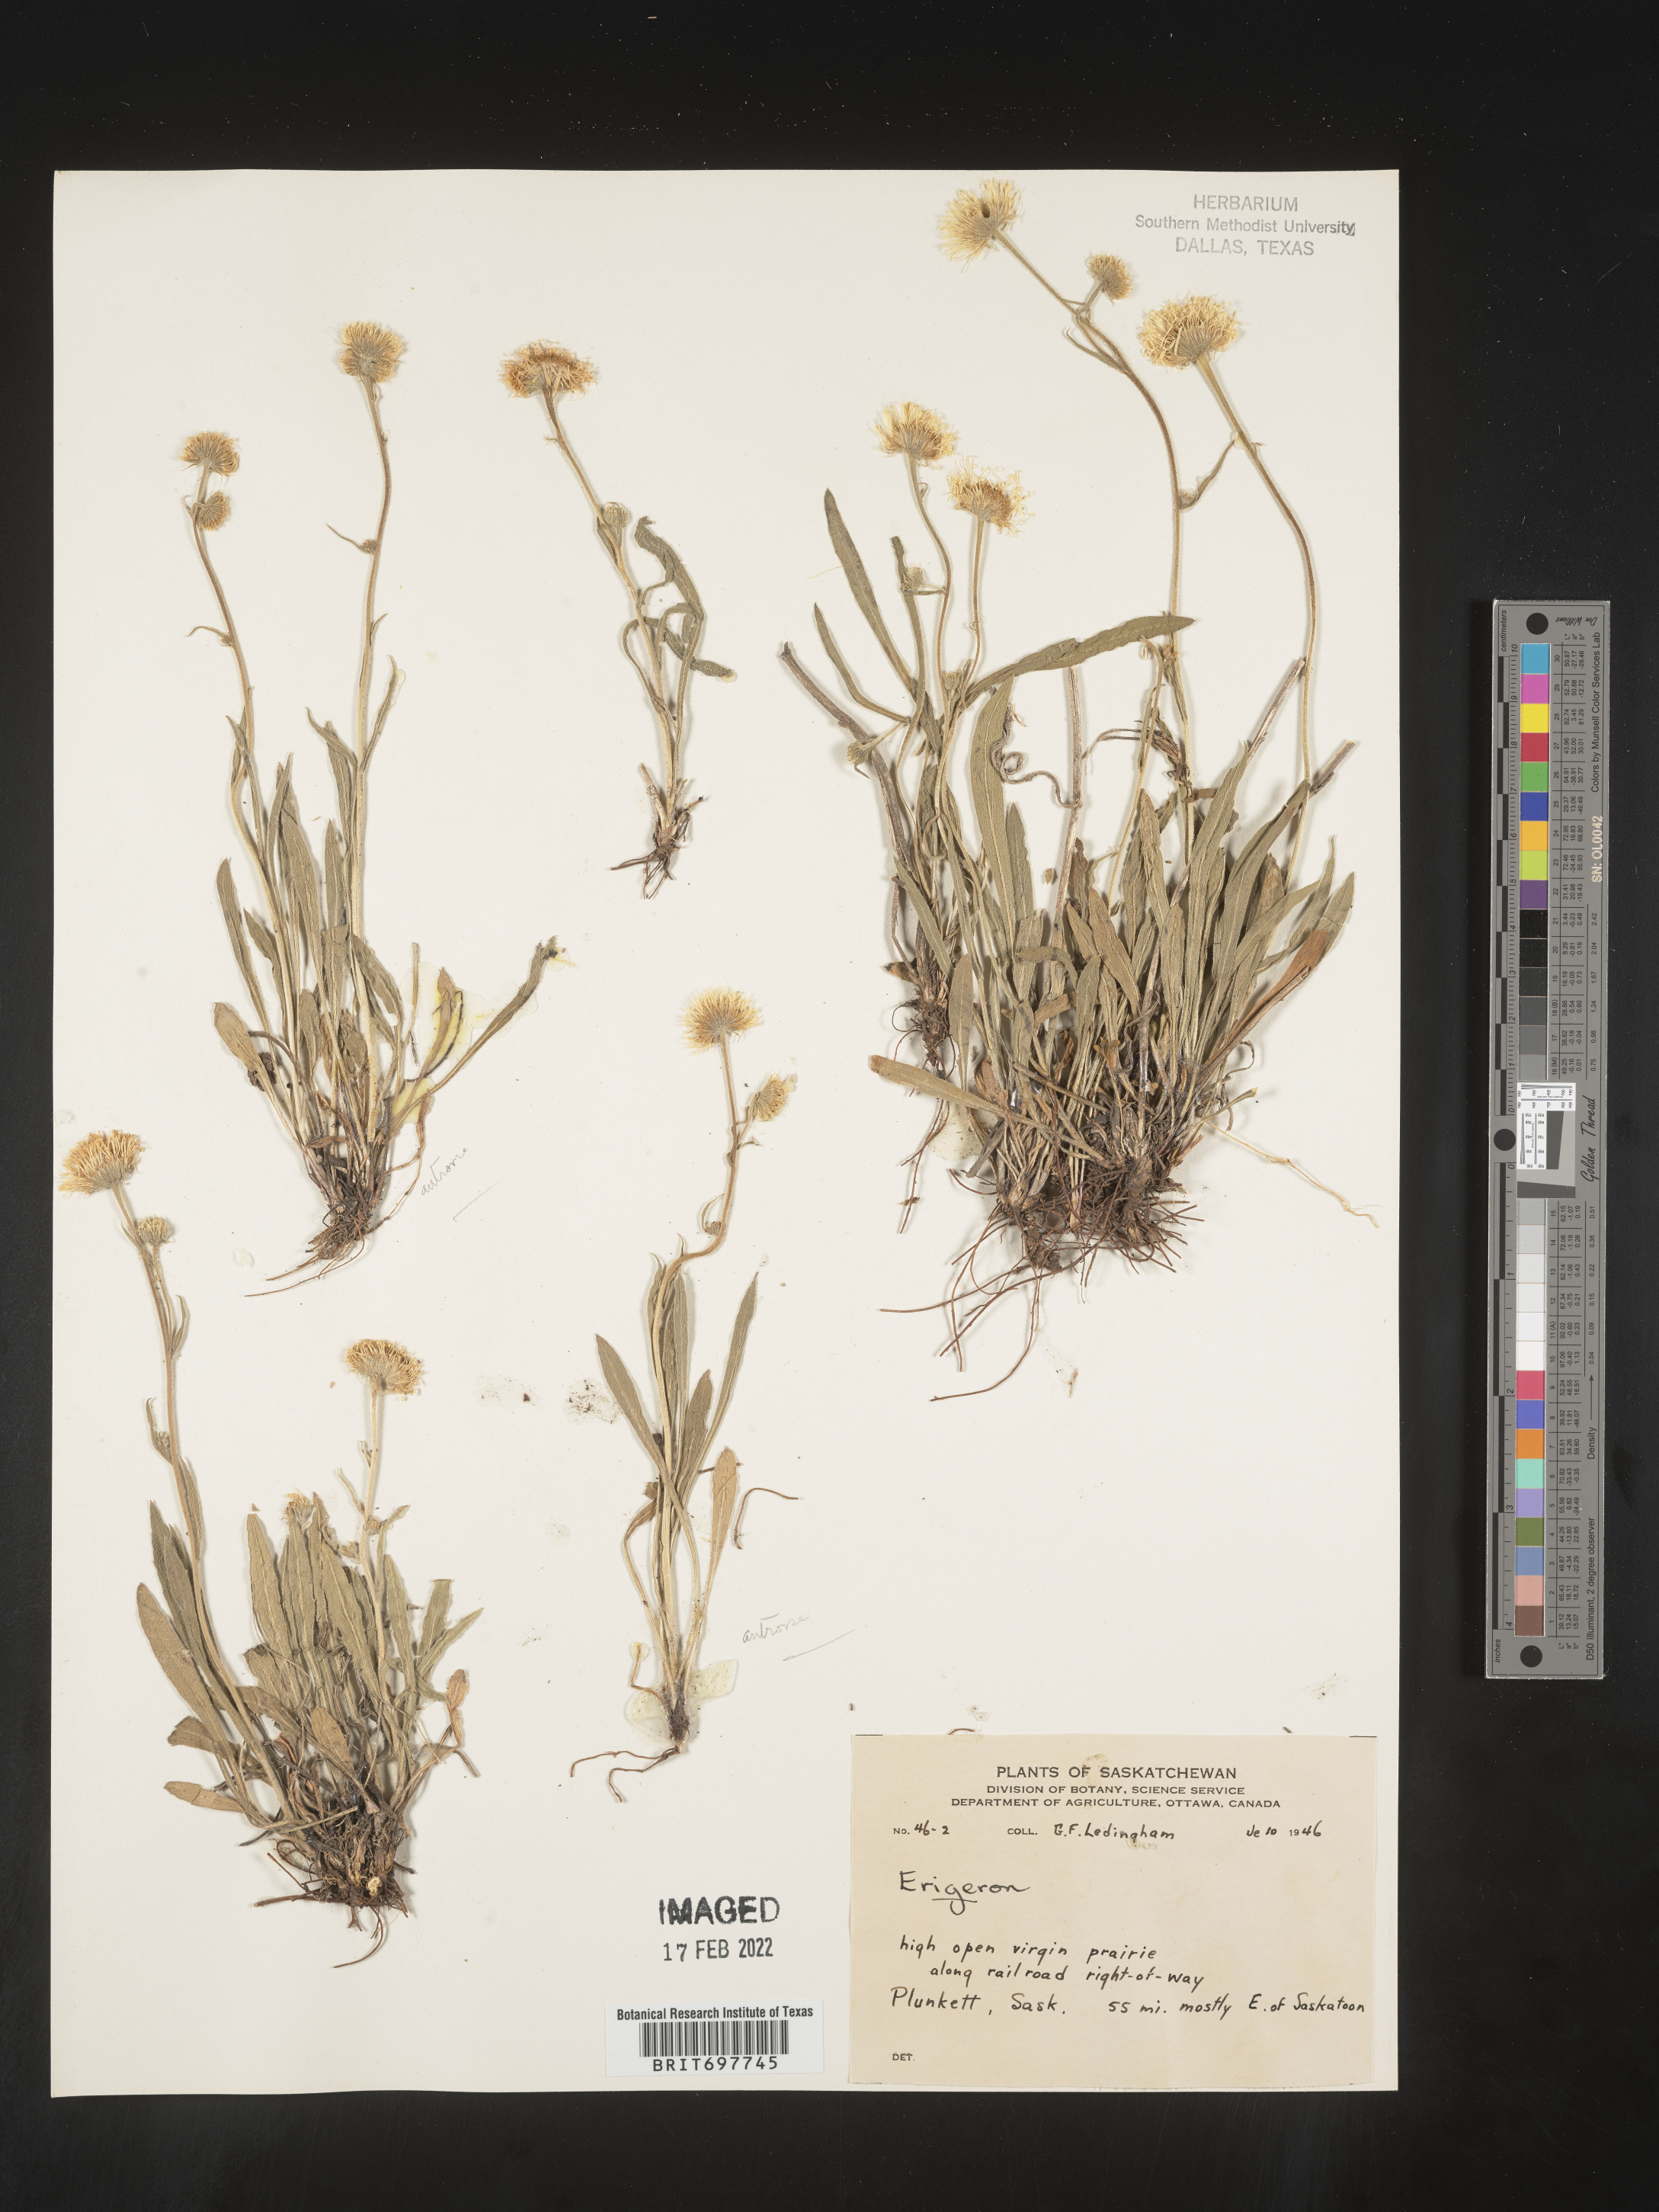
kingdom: Plantae
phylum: Tracheophyta
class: Magnoliopsida
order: Asterales
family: Asteraceae
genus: Erigeron
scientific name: Erigeron glabellus
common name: Smooth fleabane
